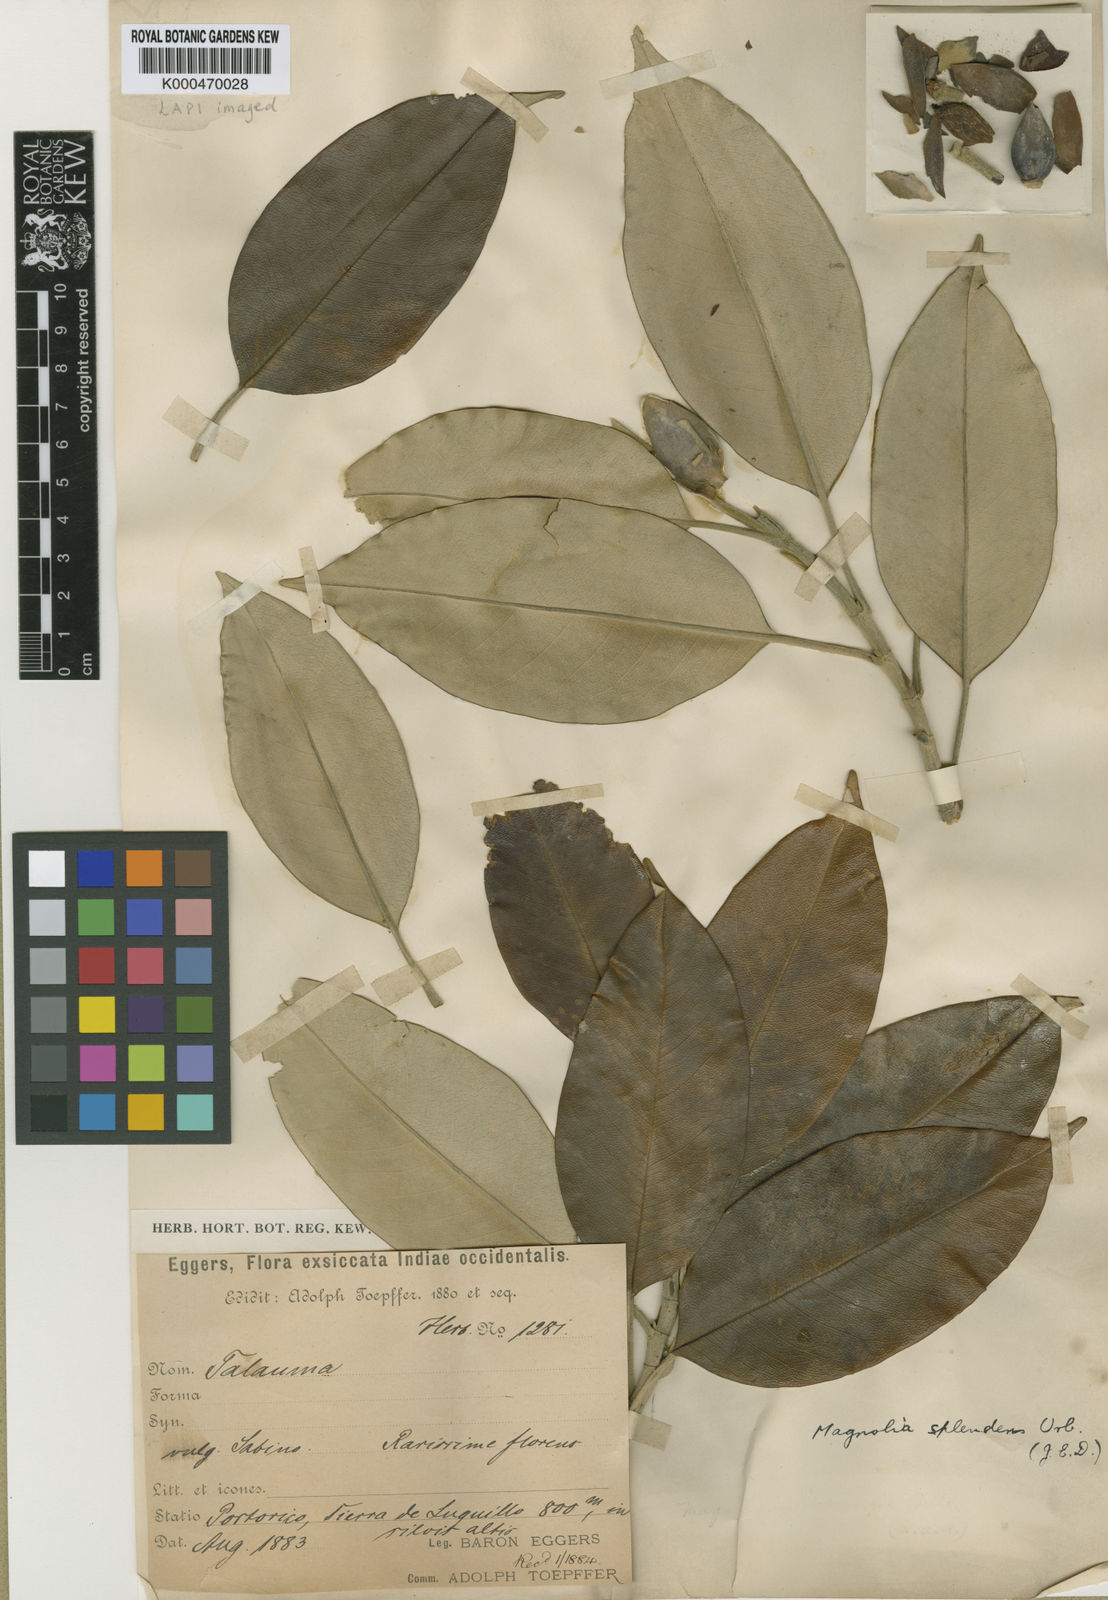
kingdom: Plantae
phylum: Tracheophyta
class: Magnoliopsida
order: Magnoliales
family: Magnoliaceae
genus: Magnolia
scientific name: Magnolia splendens
